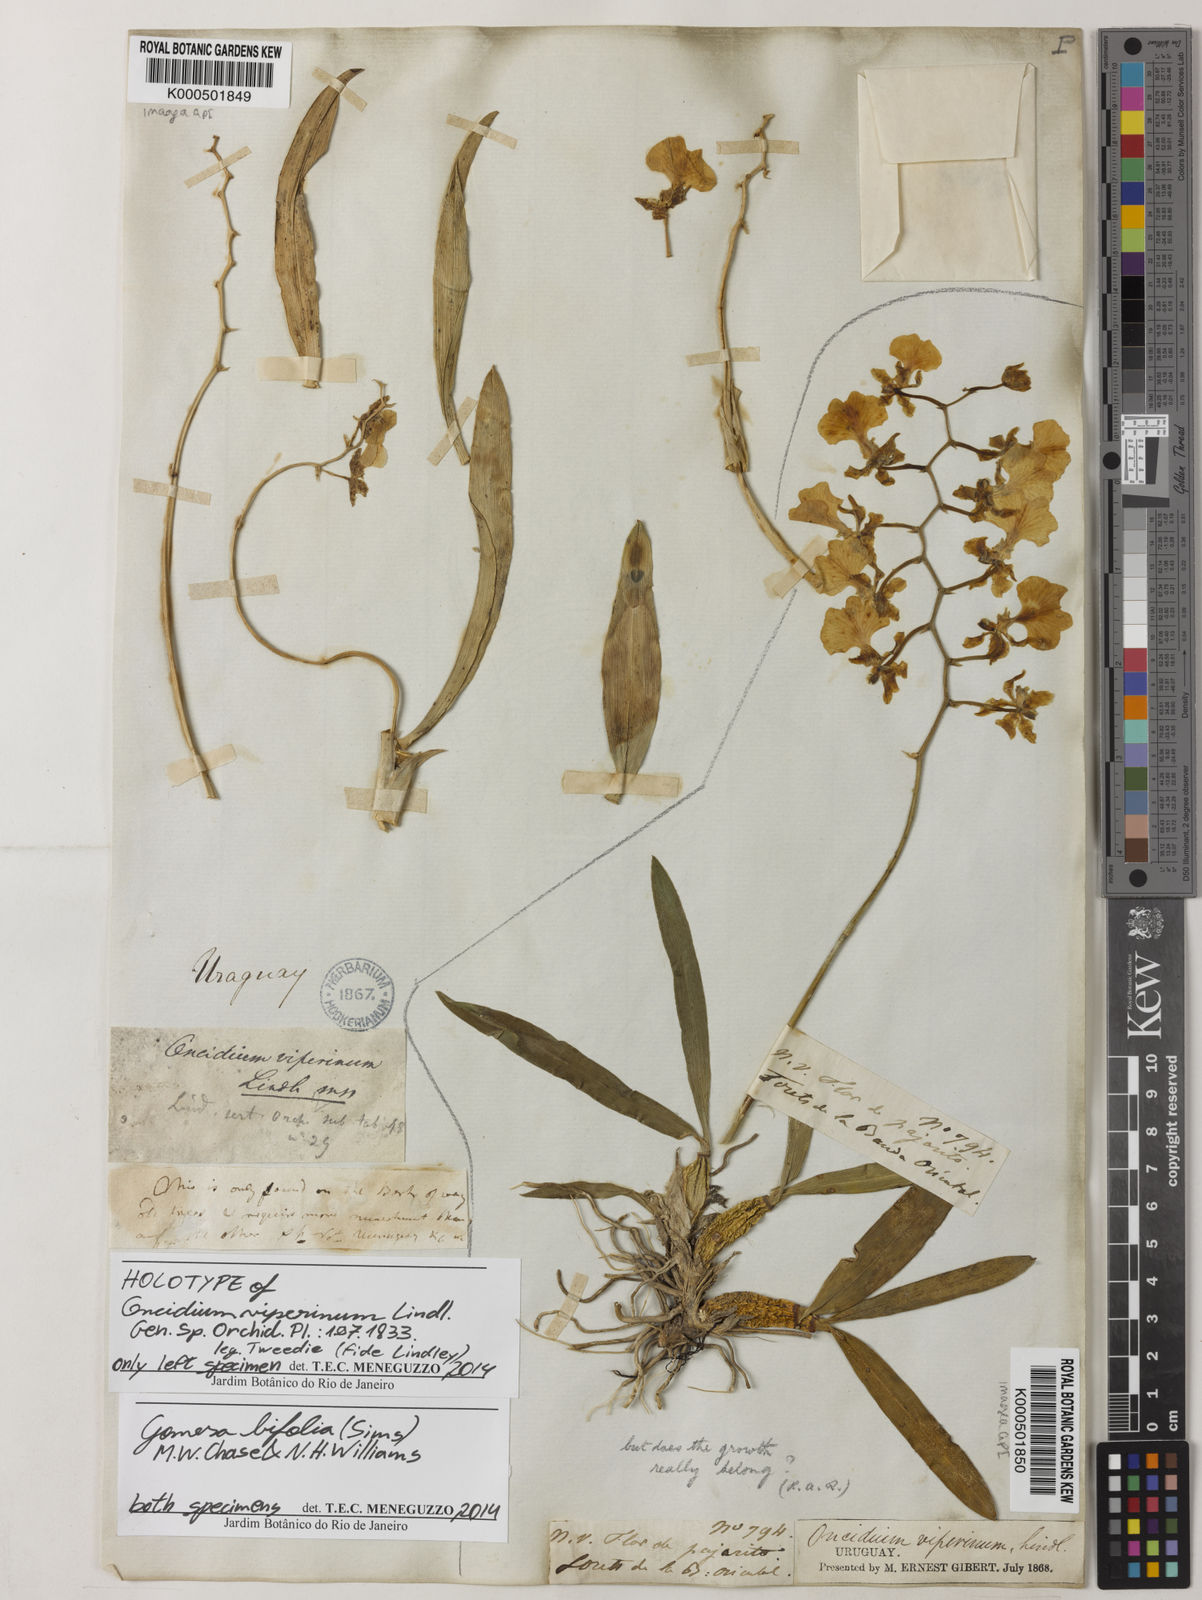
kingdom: Plantae
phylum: Tracheophyta
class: Liliopsida
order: Asparagales
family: Orchidaceae
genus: Gomesa
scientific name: Gomesa bifolia
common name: Dancing ladies
